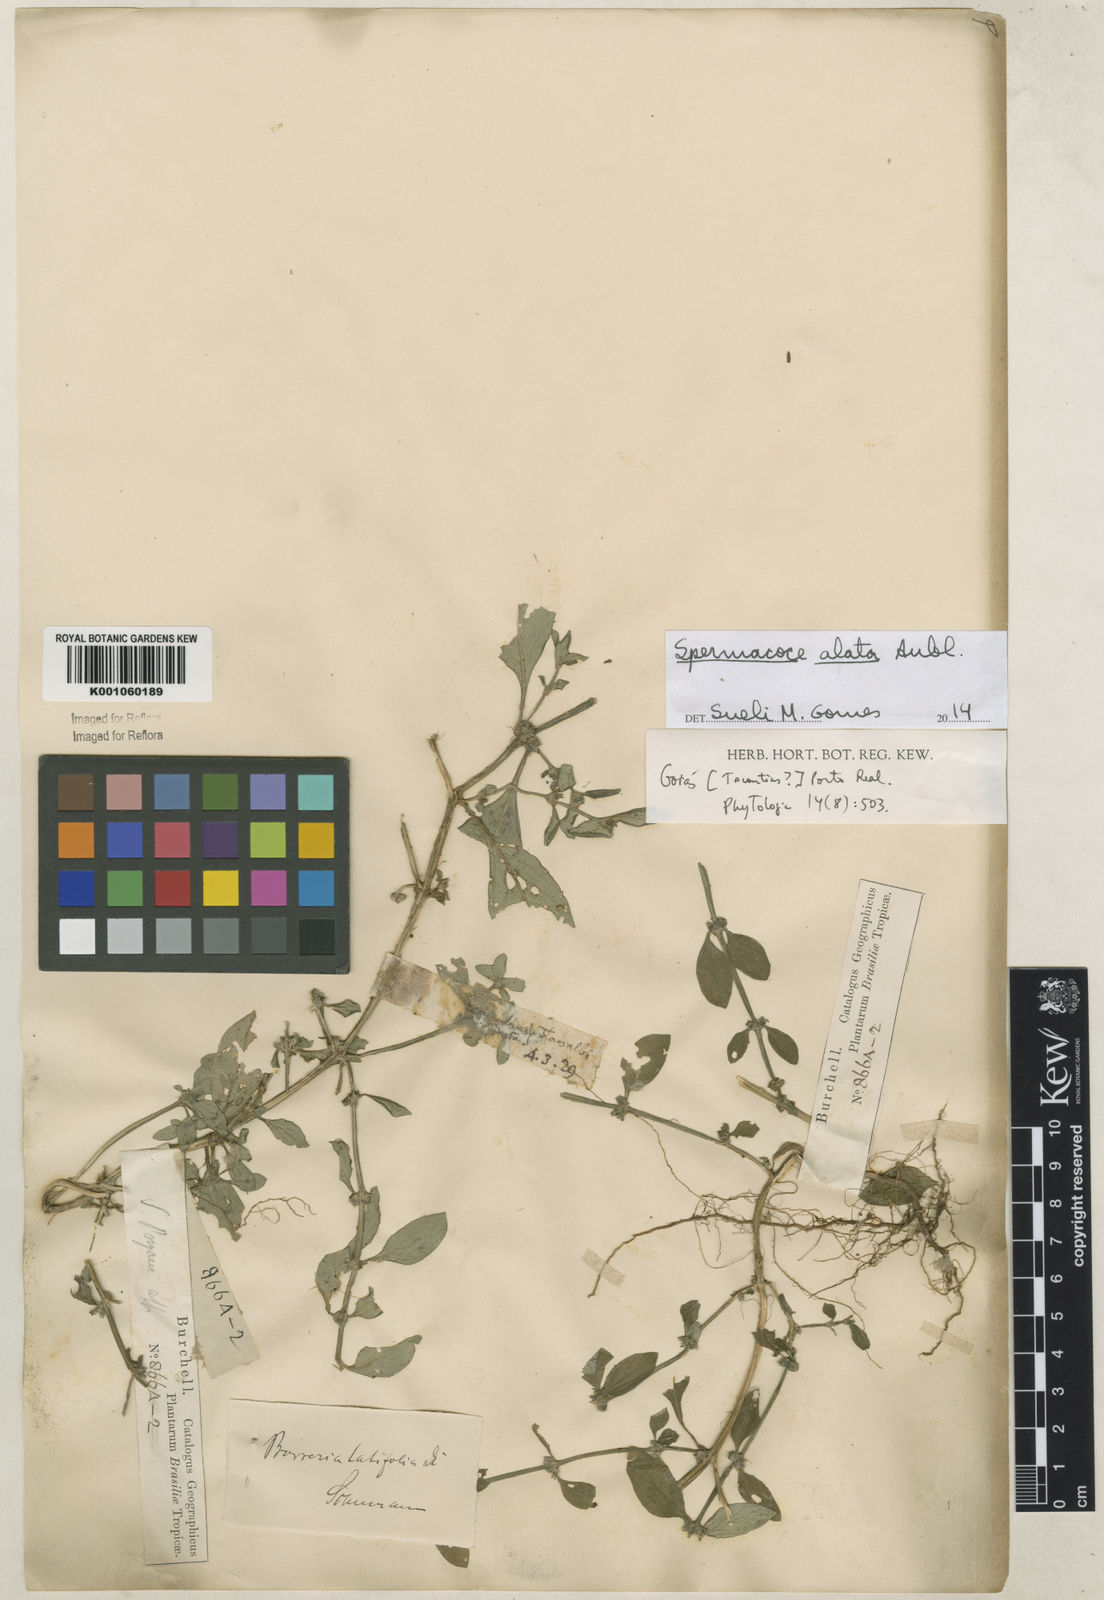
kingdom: Plantae
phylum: Tracheophyta
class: Magnoliopsida
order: Gentianales
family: Rubiaceae
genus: Spermacoce
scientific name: Spermacoce
